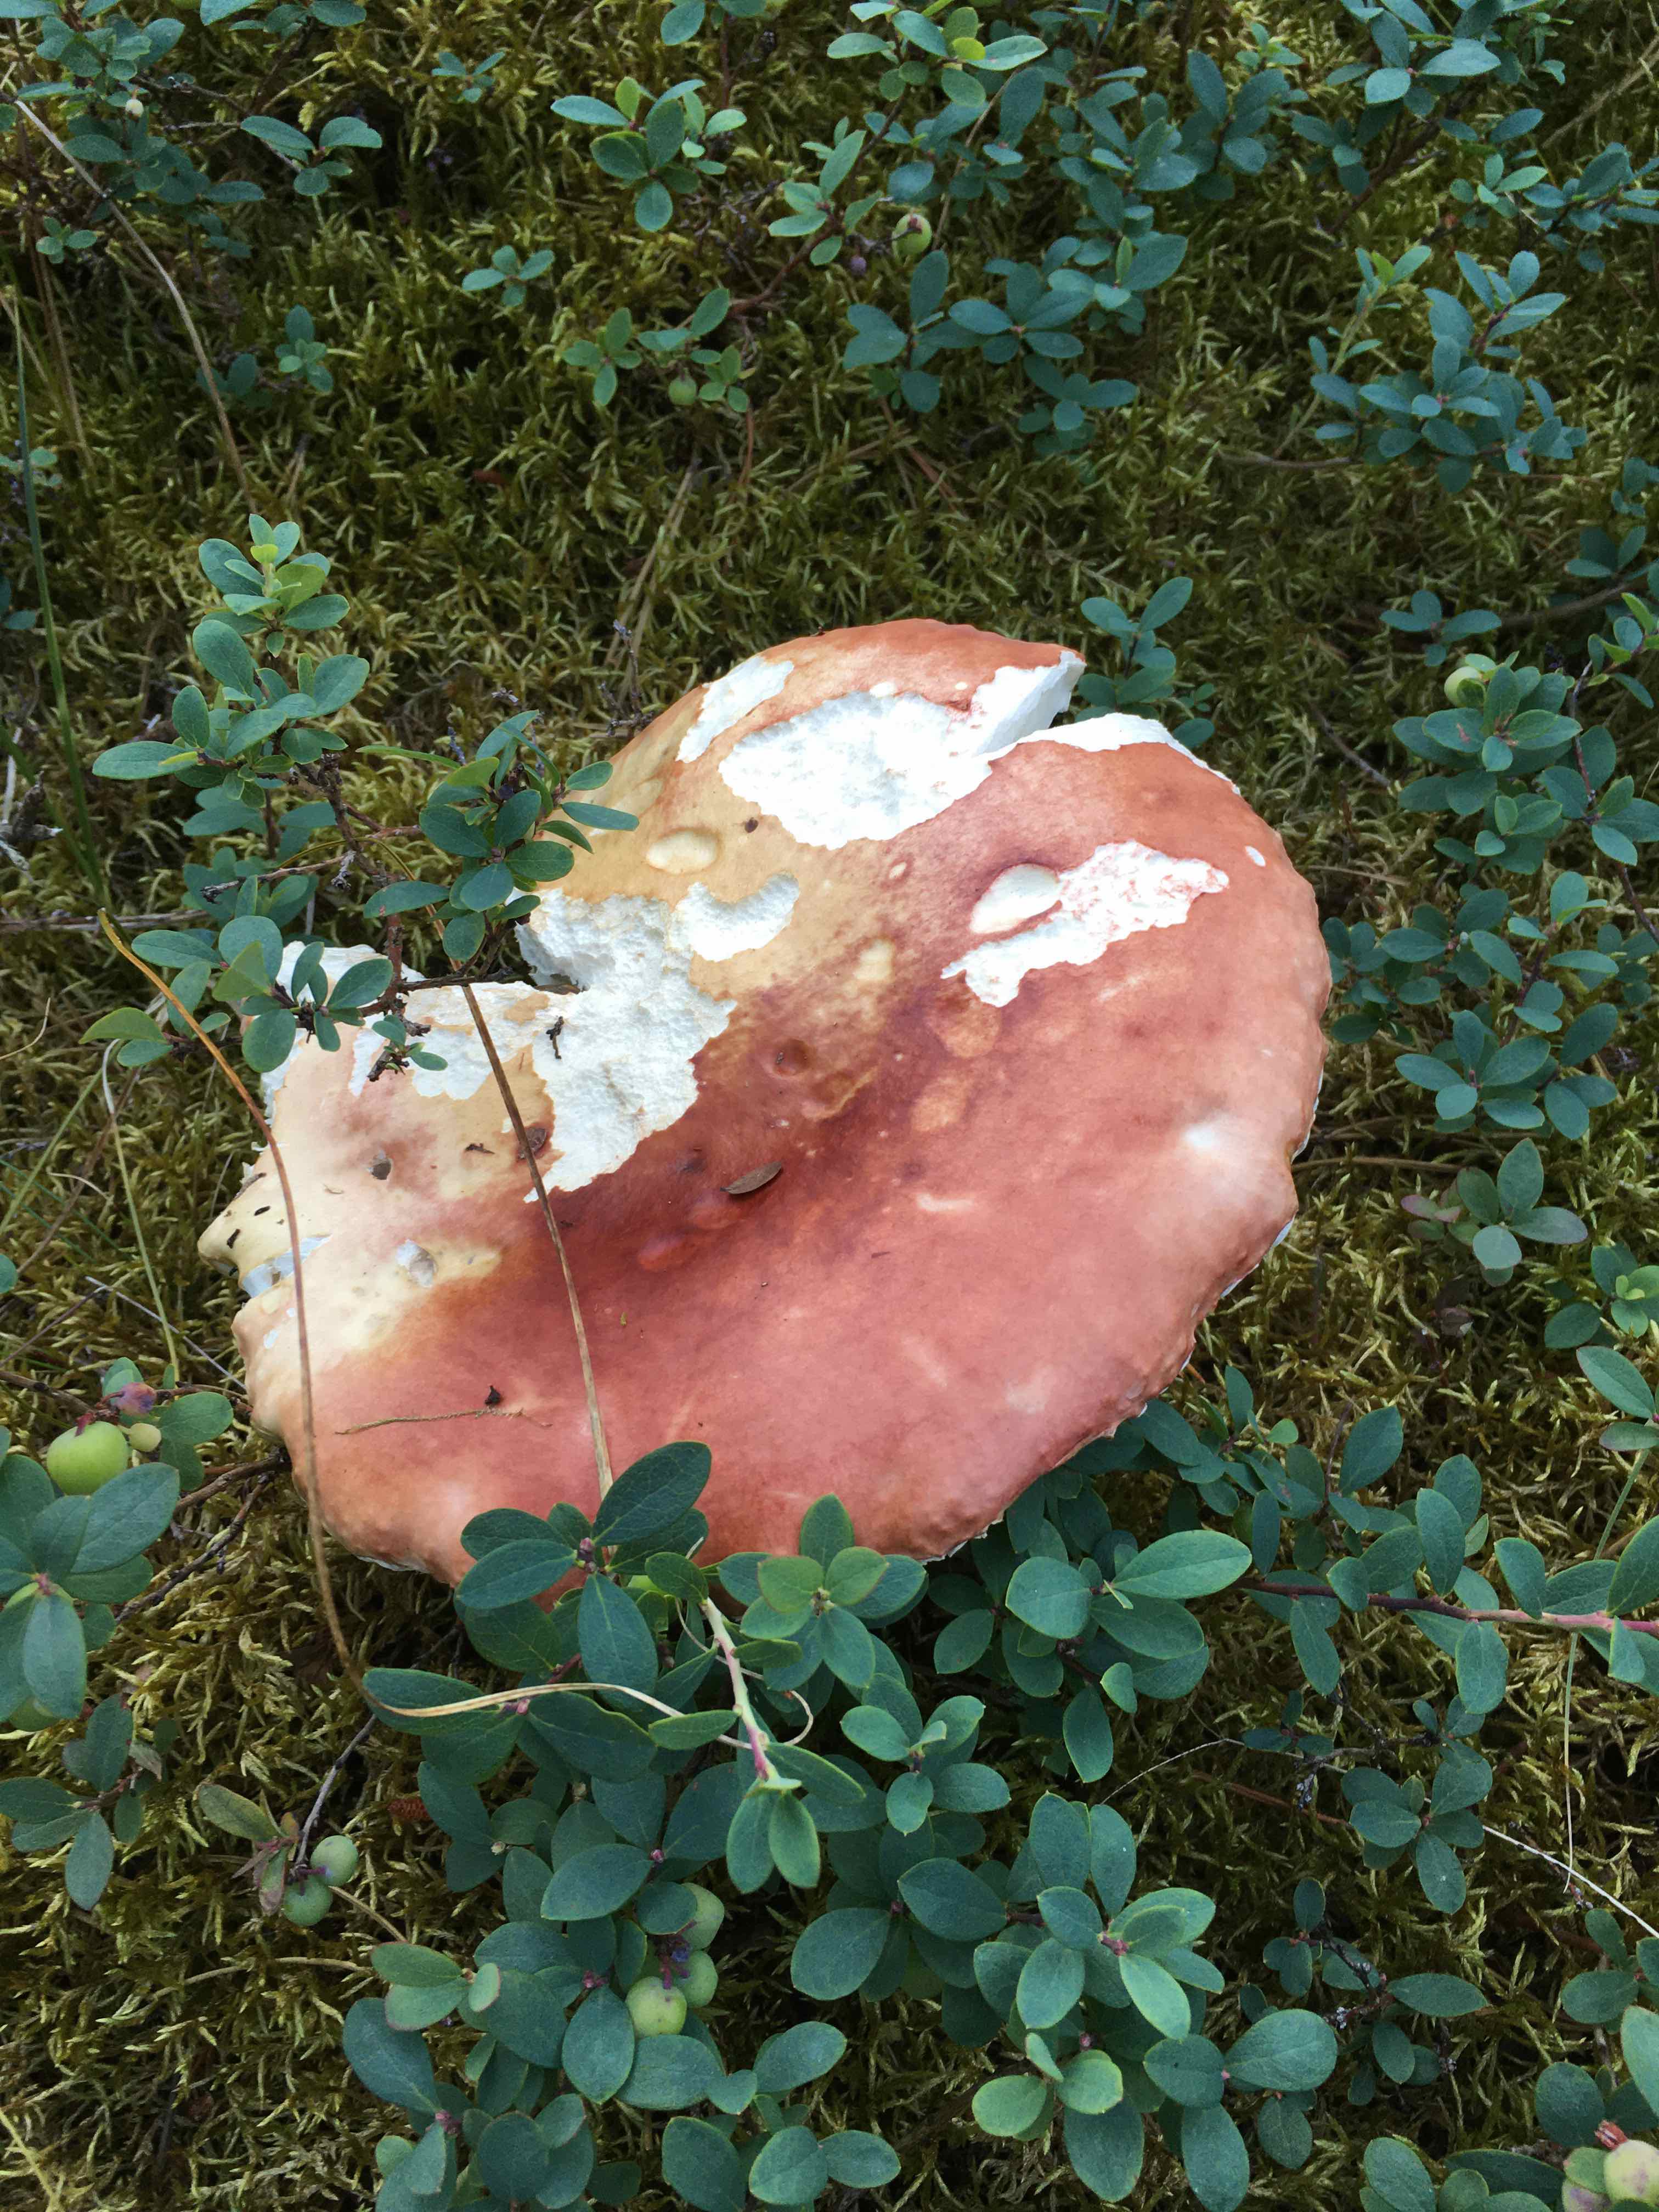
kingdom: Fungi
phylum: Basidiomycota
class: Agaricomycetes
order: Russulales
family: Russulaceae
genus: Russula
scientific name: Russula
